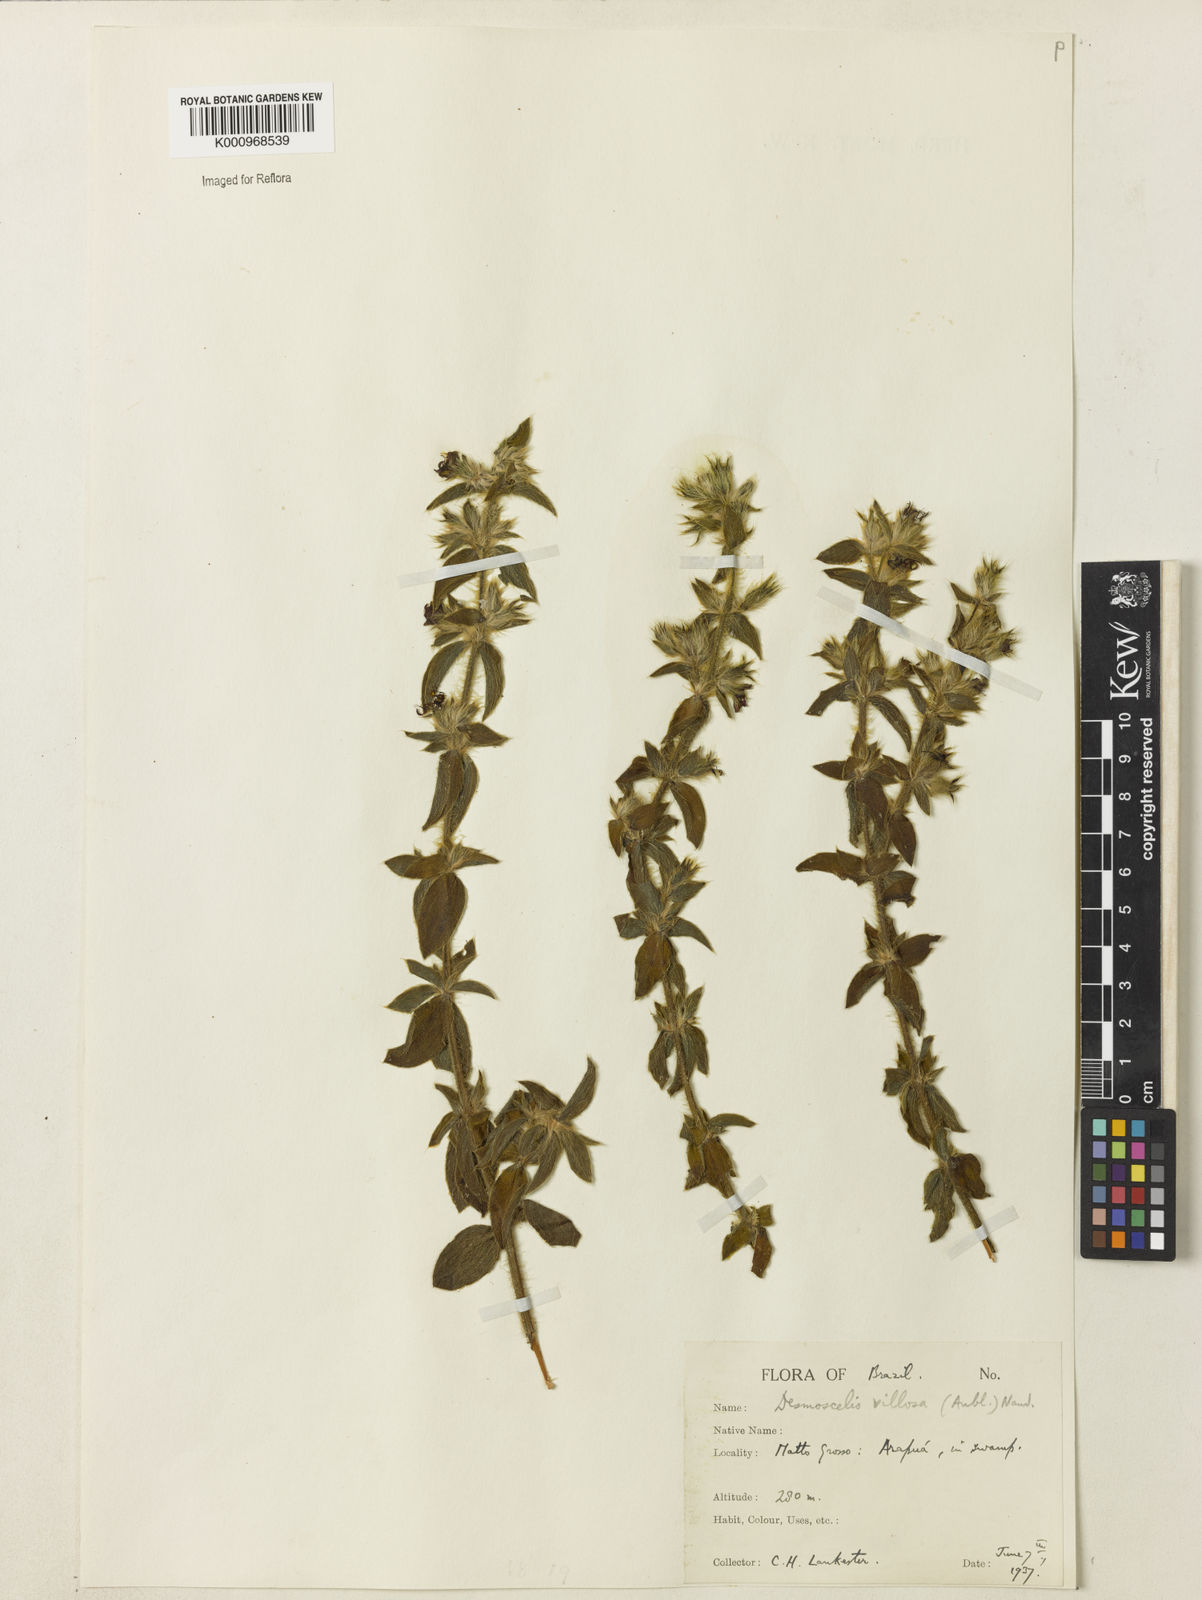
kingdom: Plantae
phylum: Tracheophyta
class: Magnoliopsida
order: Myrtales
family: Melastomataceae
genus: Desmoscelis
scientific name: Desmoscelis villosa
